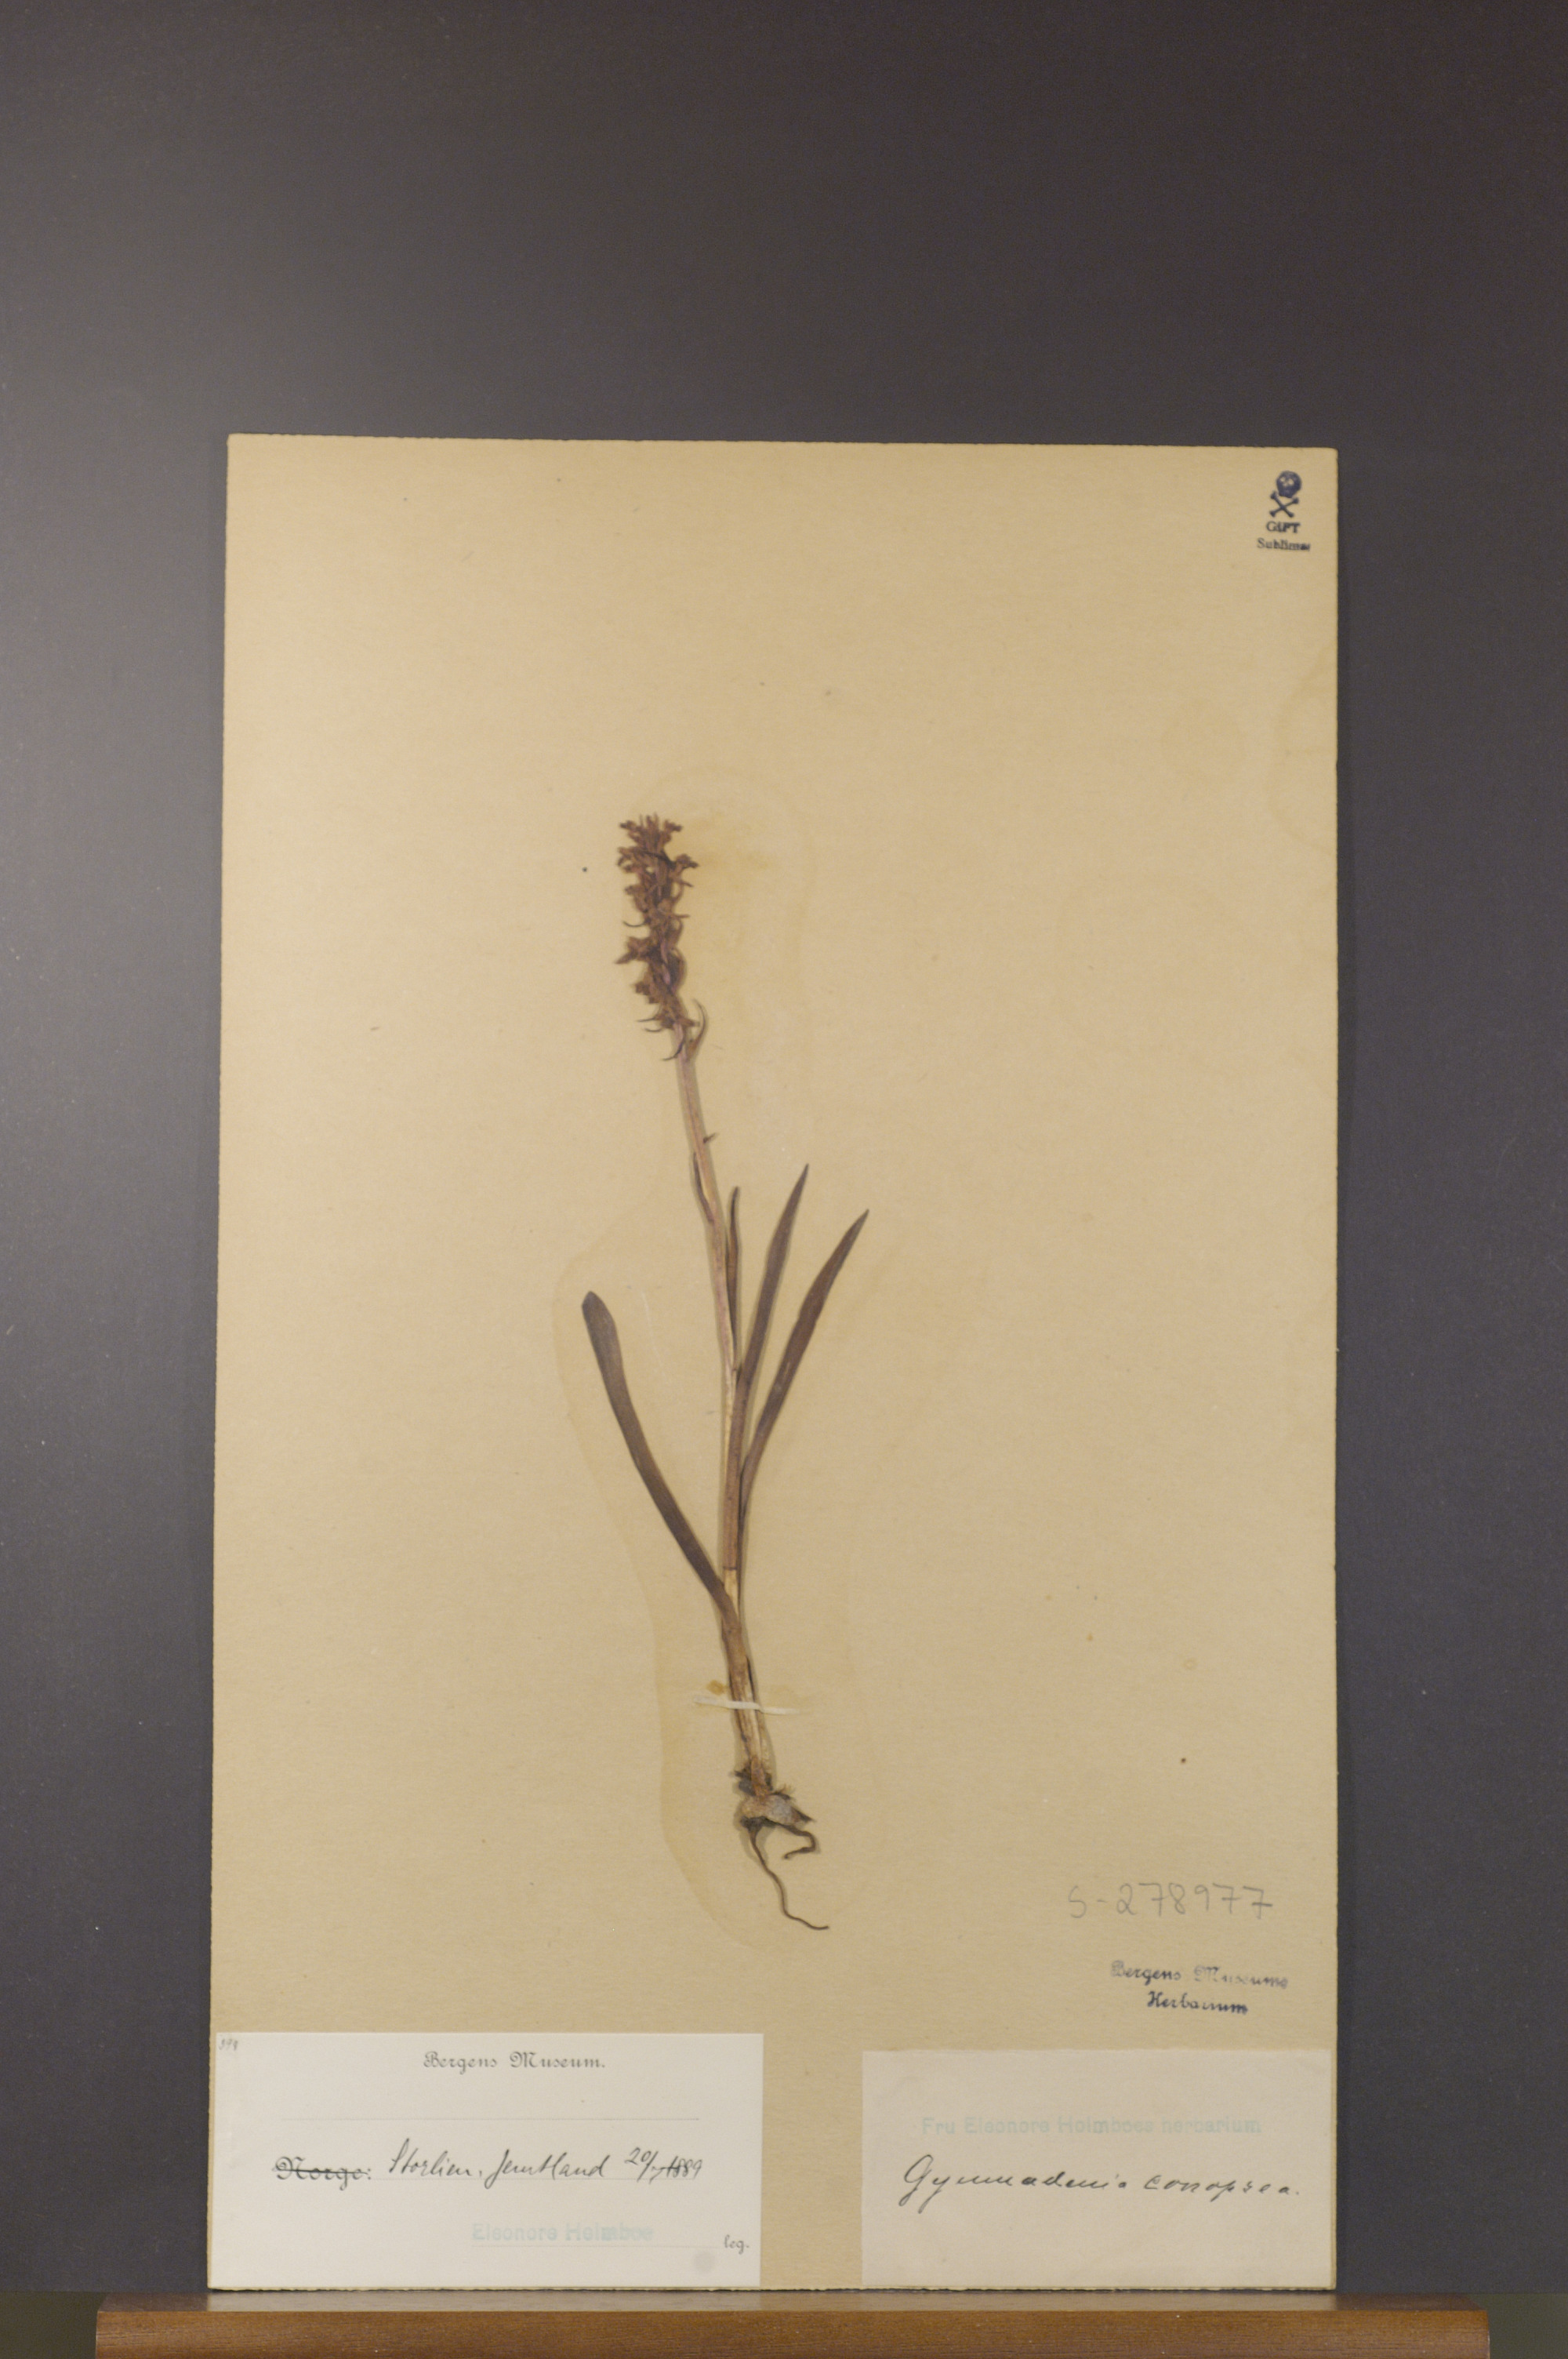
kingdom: Plantae
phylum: Tracheophyta
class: Liliopsida
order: Asparagales
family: Orchidaceae
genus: Gymnadenia
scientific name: Gymnadenia conopsea
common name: Fragrant orchid
